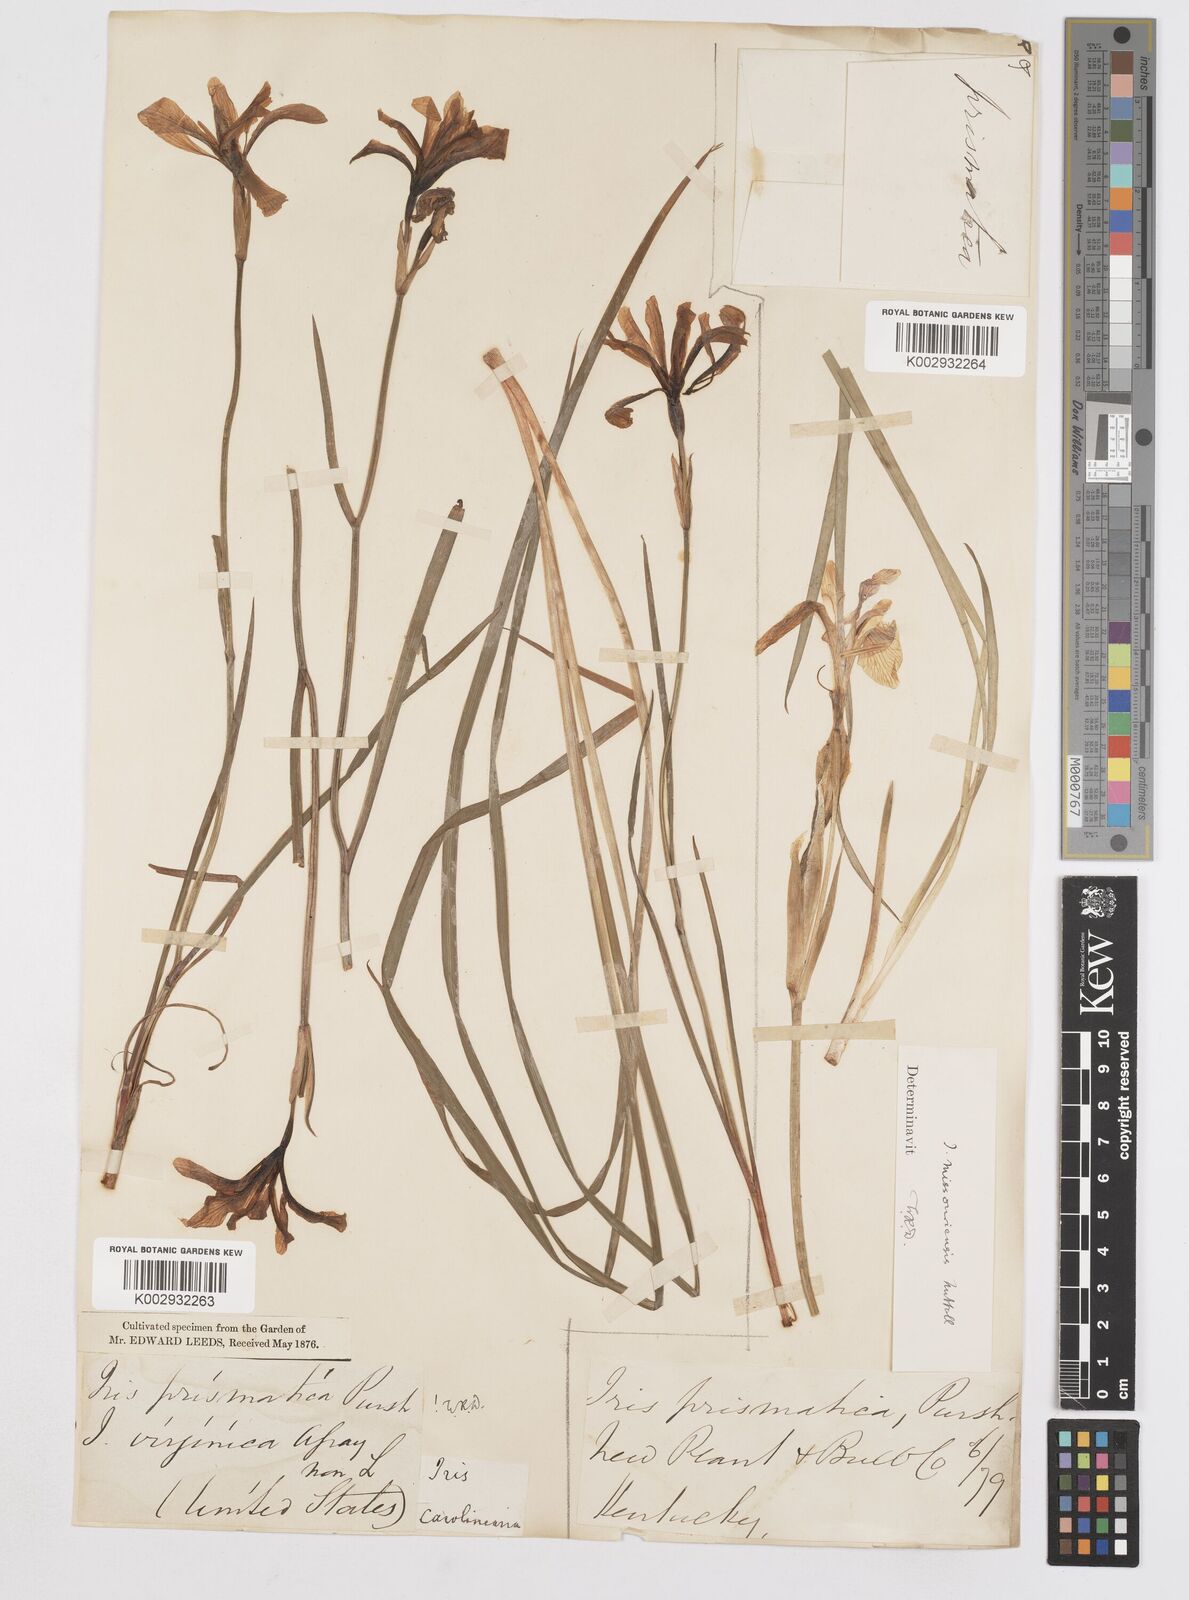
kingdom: Plantae
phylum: Tracheophyta
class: Liliopsida
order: Asparagales
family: Iridaceae
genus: Iris
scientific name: Iris prismatica
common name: Slender blue flag
